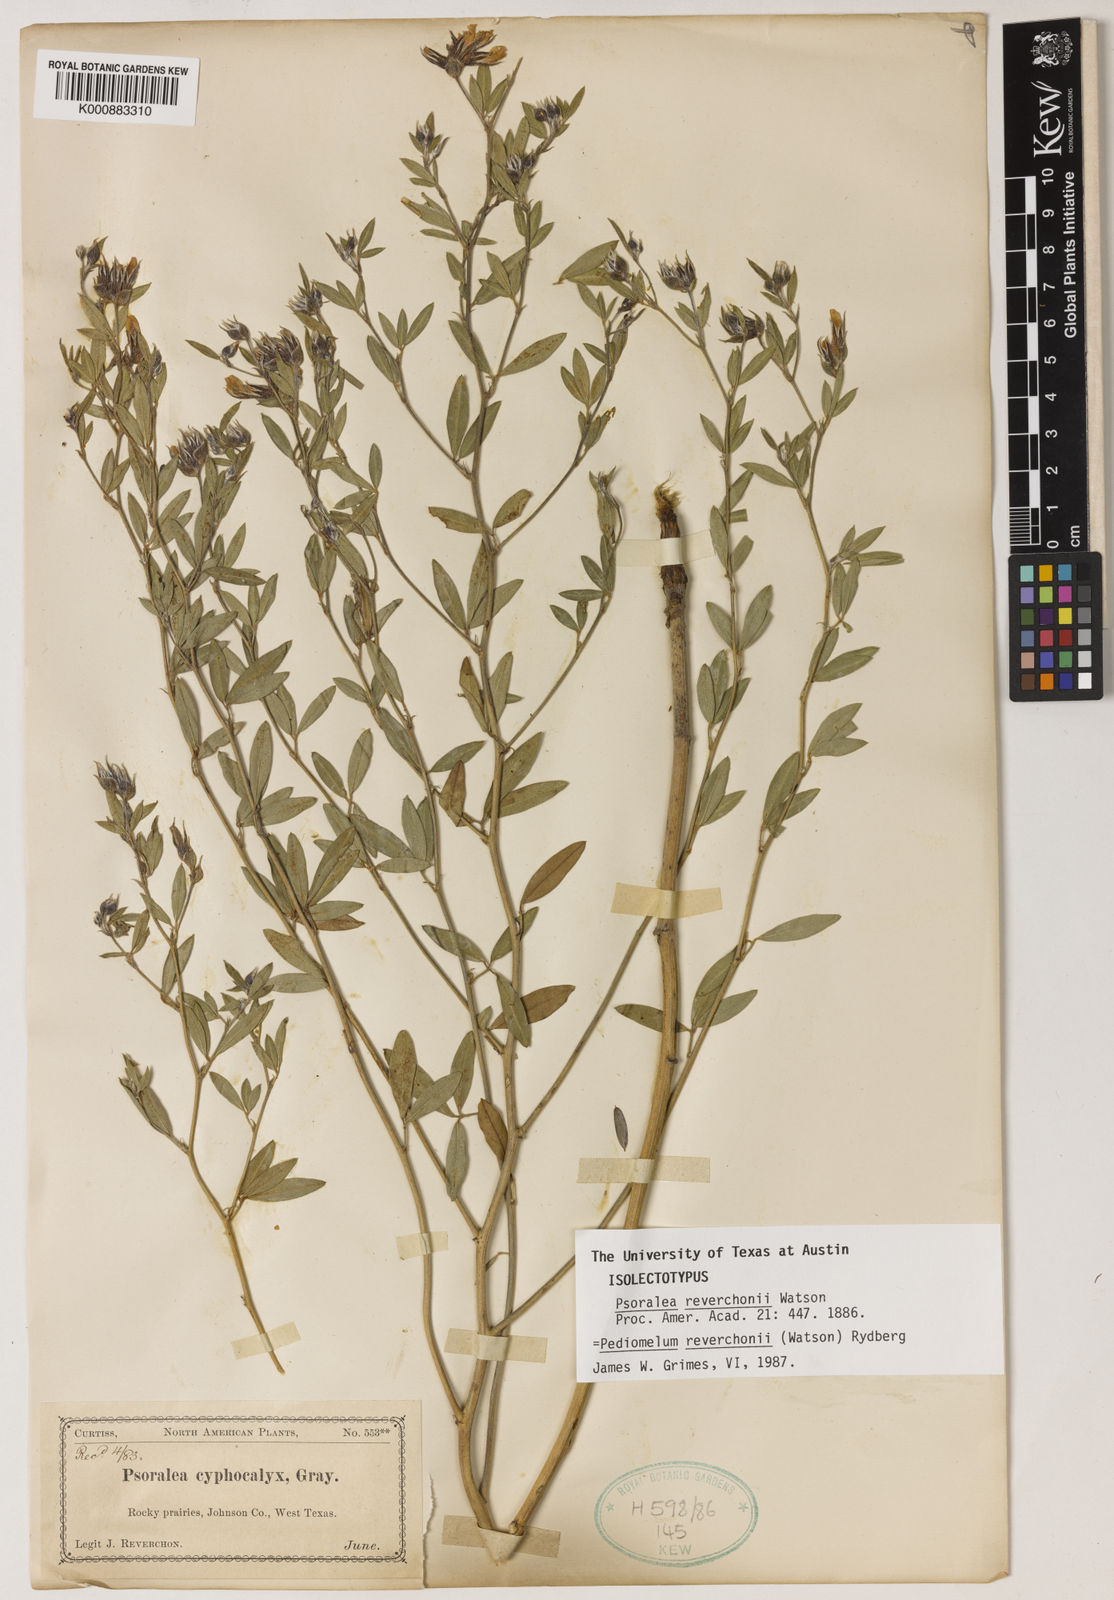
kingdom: Plantae
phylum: Tracheophyta
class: Magnoliopsida
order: Fabales
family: Fabaceae
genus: Pediomelum
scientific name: Pediomelum reverchonii
